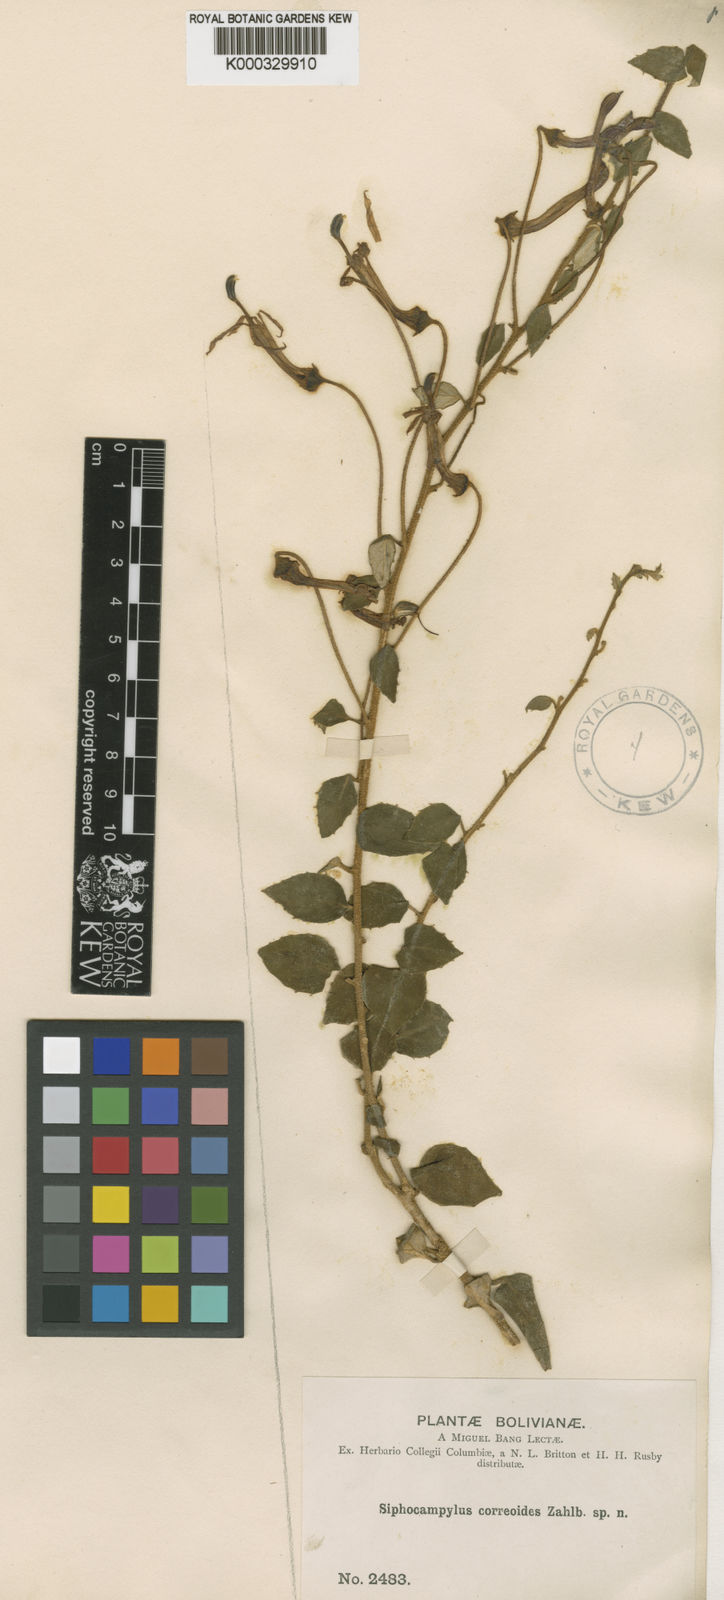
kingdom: Plantae
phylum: Tracheophyta
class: Magnoliopsida
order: Asterales
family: Campanulaceae
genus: Siphocampylus
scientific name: Siphocampylus correoides
